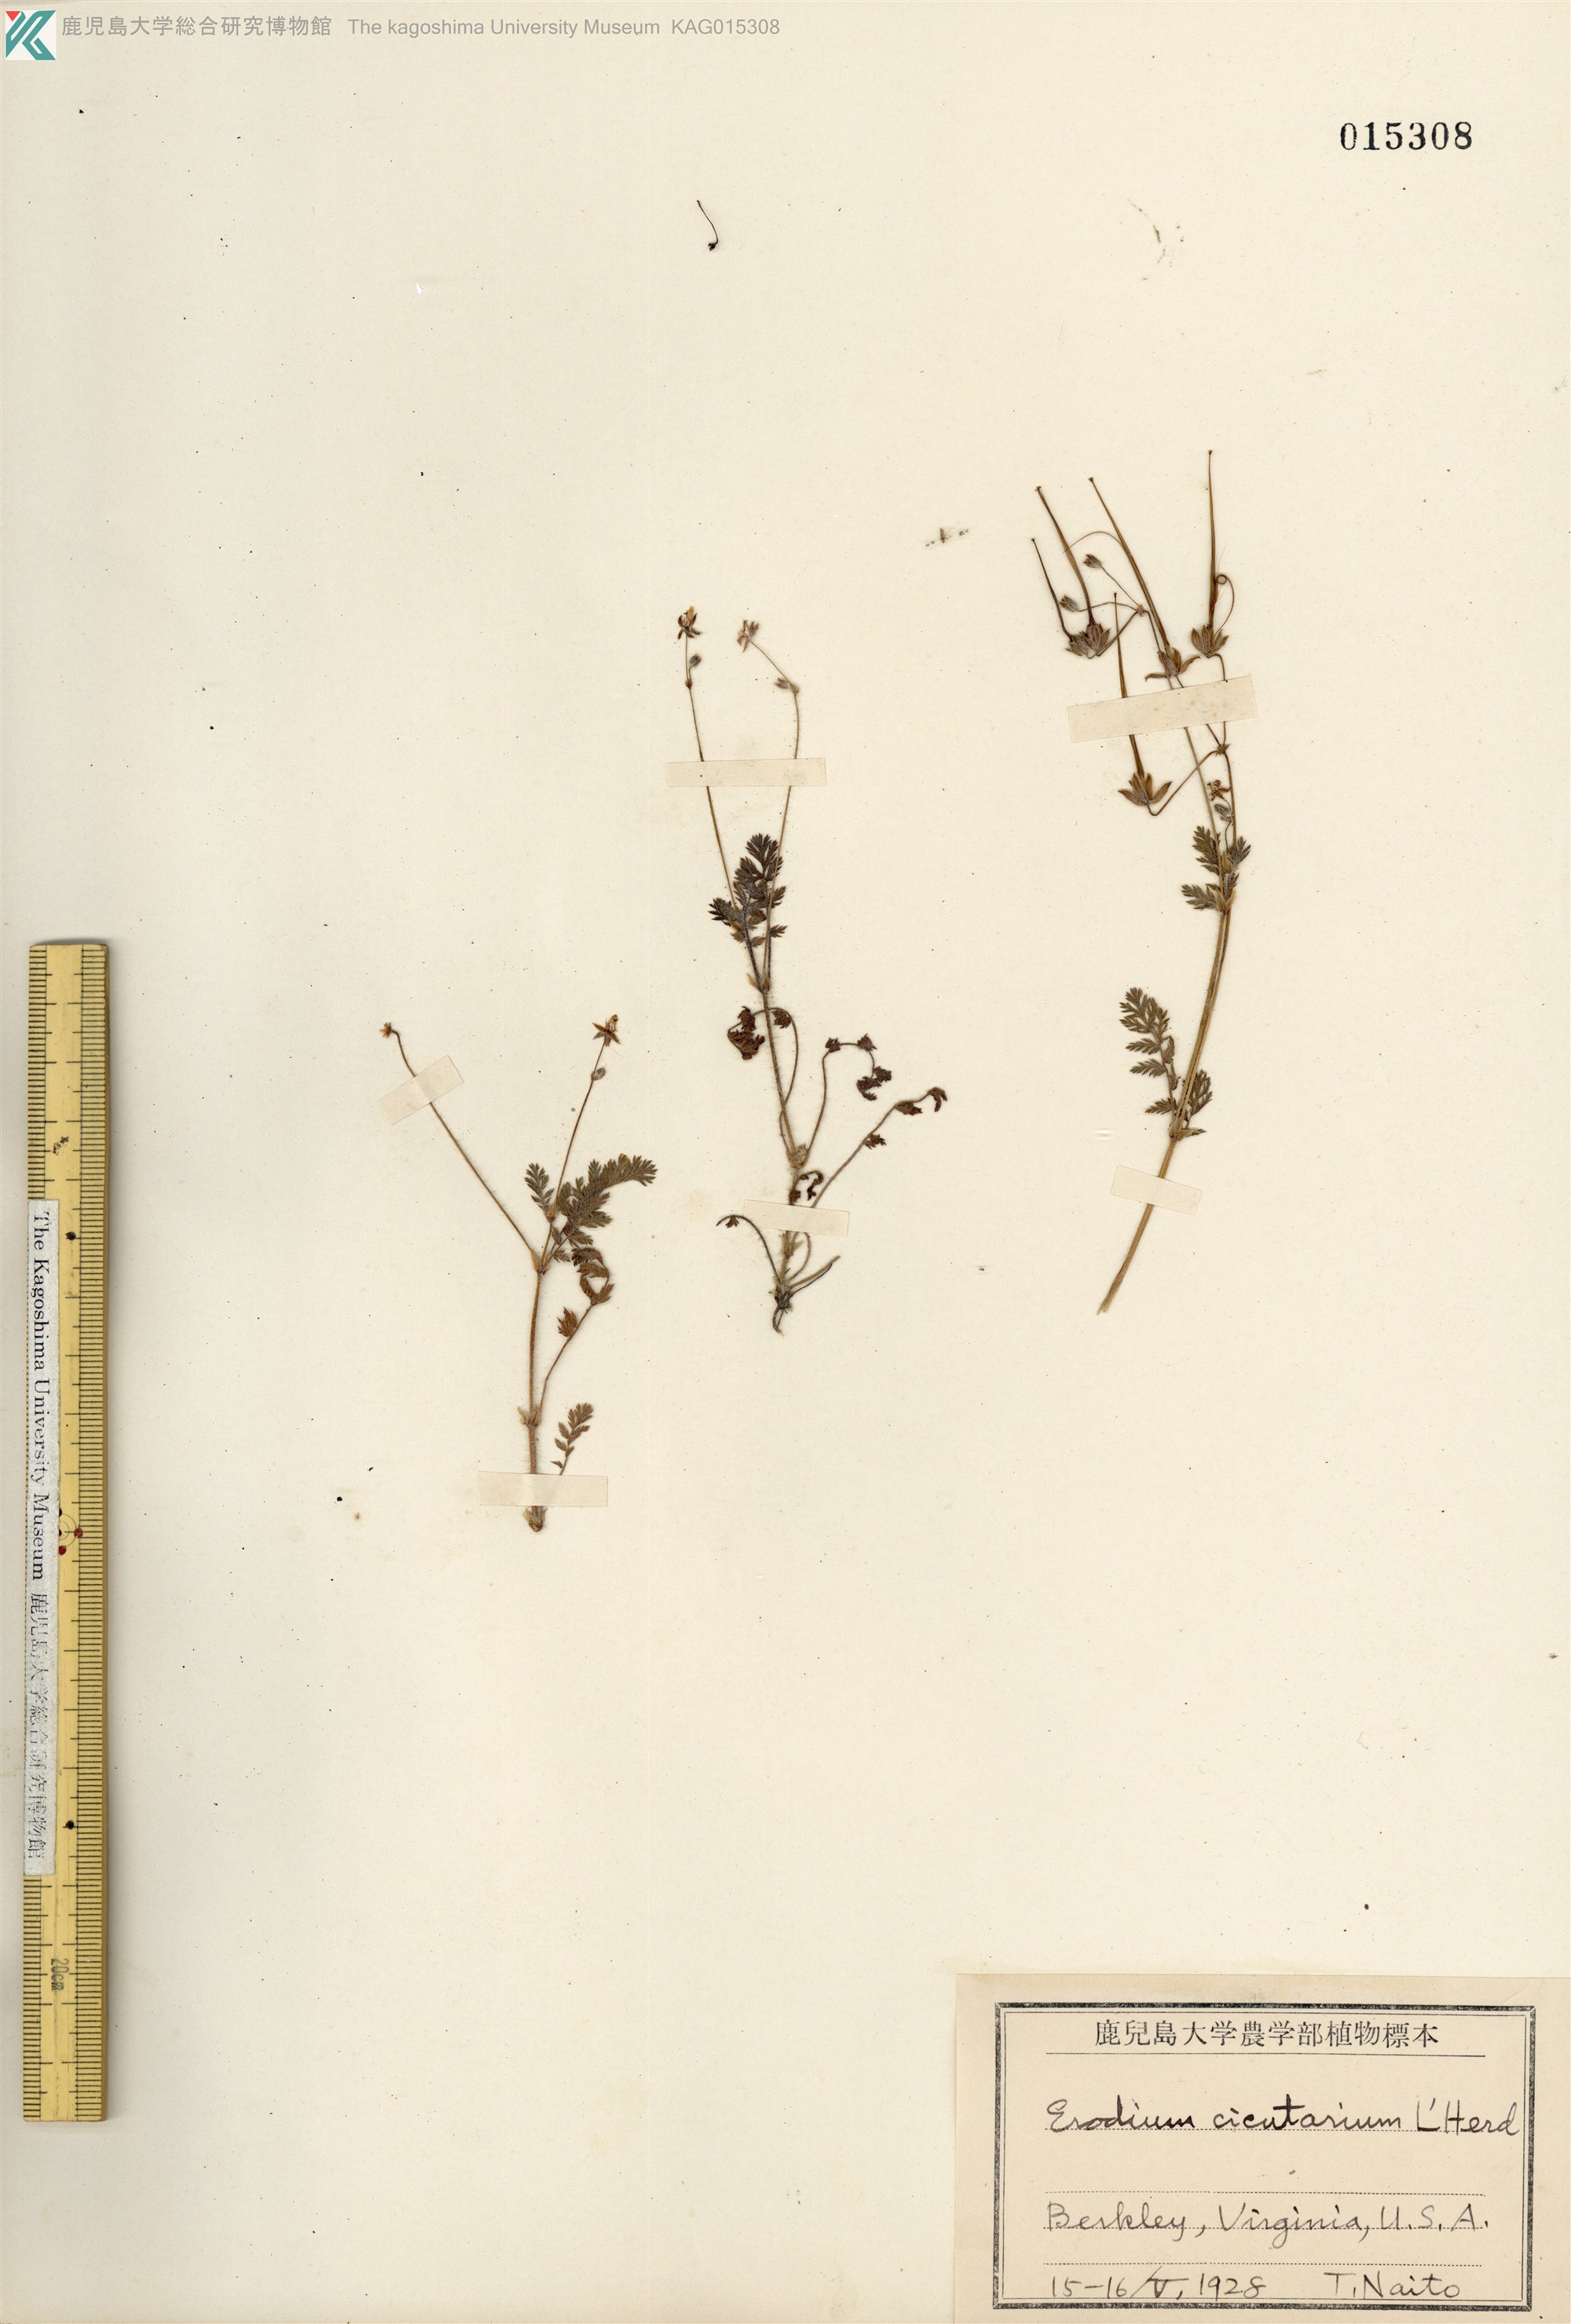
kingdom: Plantae
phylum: Tracheophyta
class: Magnoliopsida
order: Geraniales
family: Geraniaceae
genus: Erodium
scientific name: Erodium cicutarium
